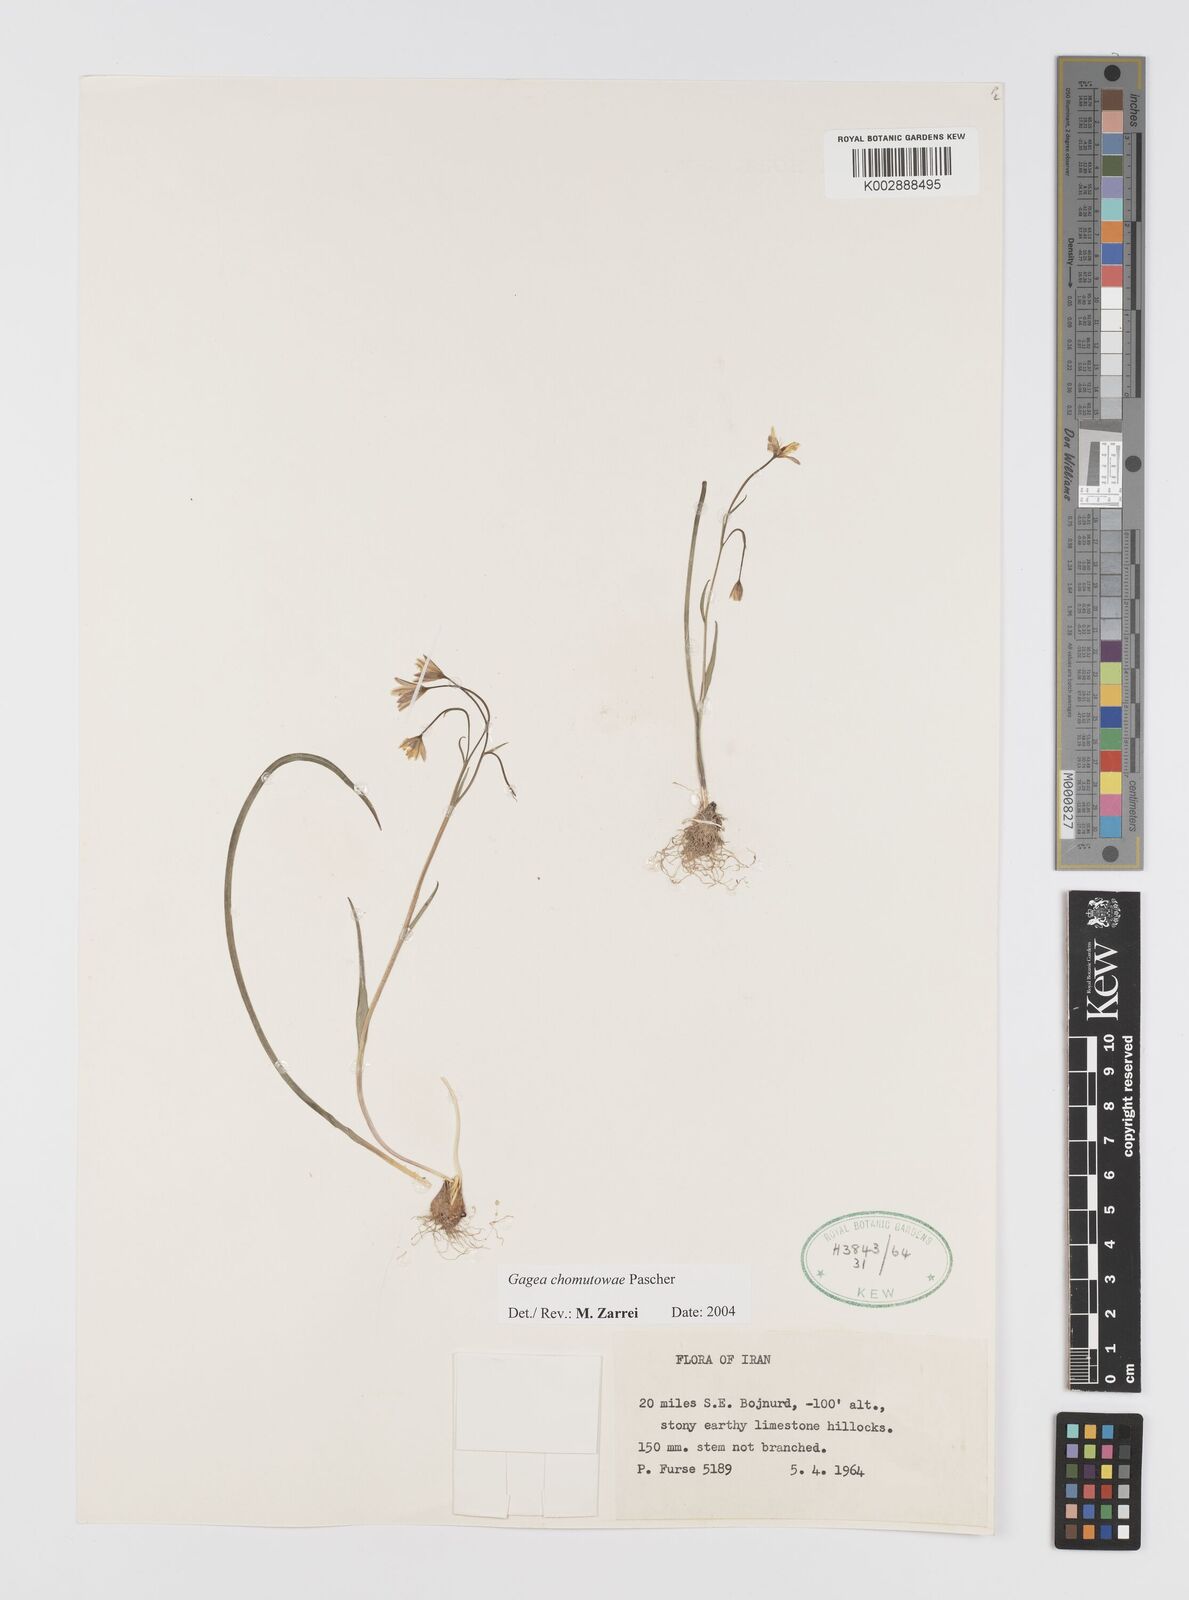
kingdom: Plantae
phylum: Tracheophyta
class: Liliopsida
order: Liliales
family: Liliaceae
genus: Gagea
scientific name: Gagea chomutovae
